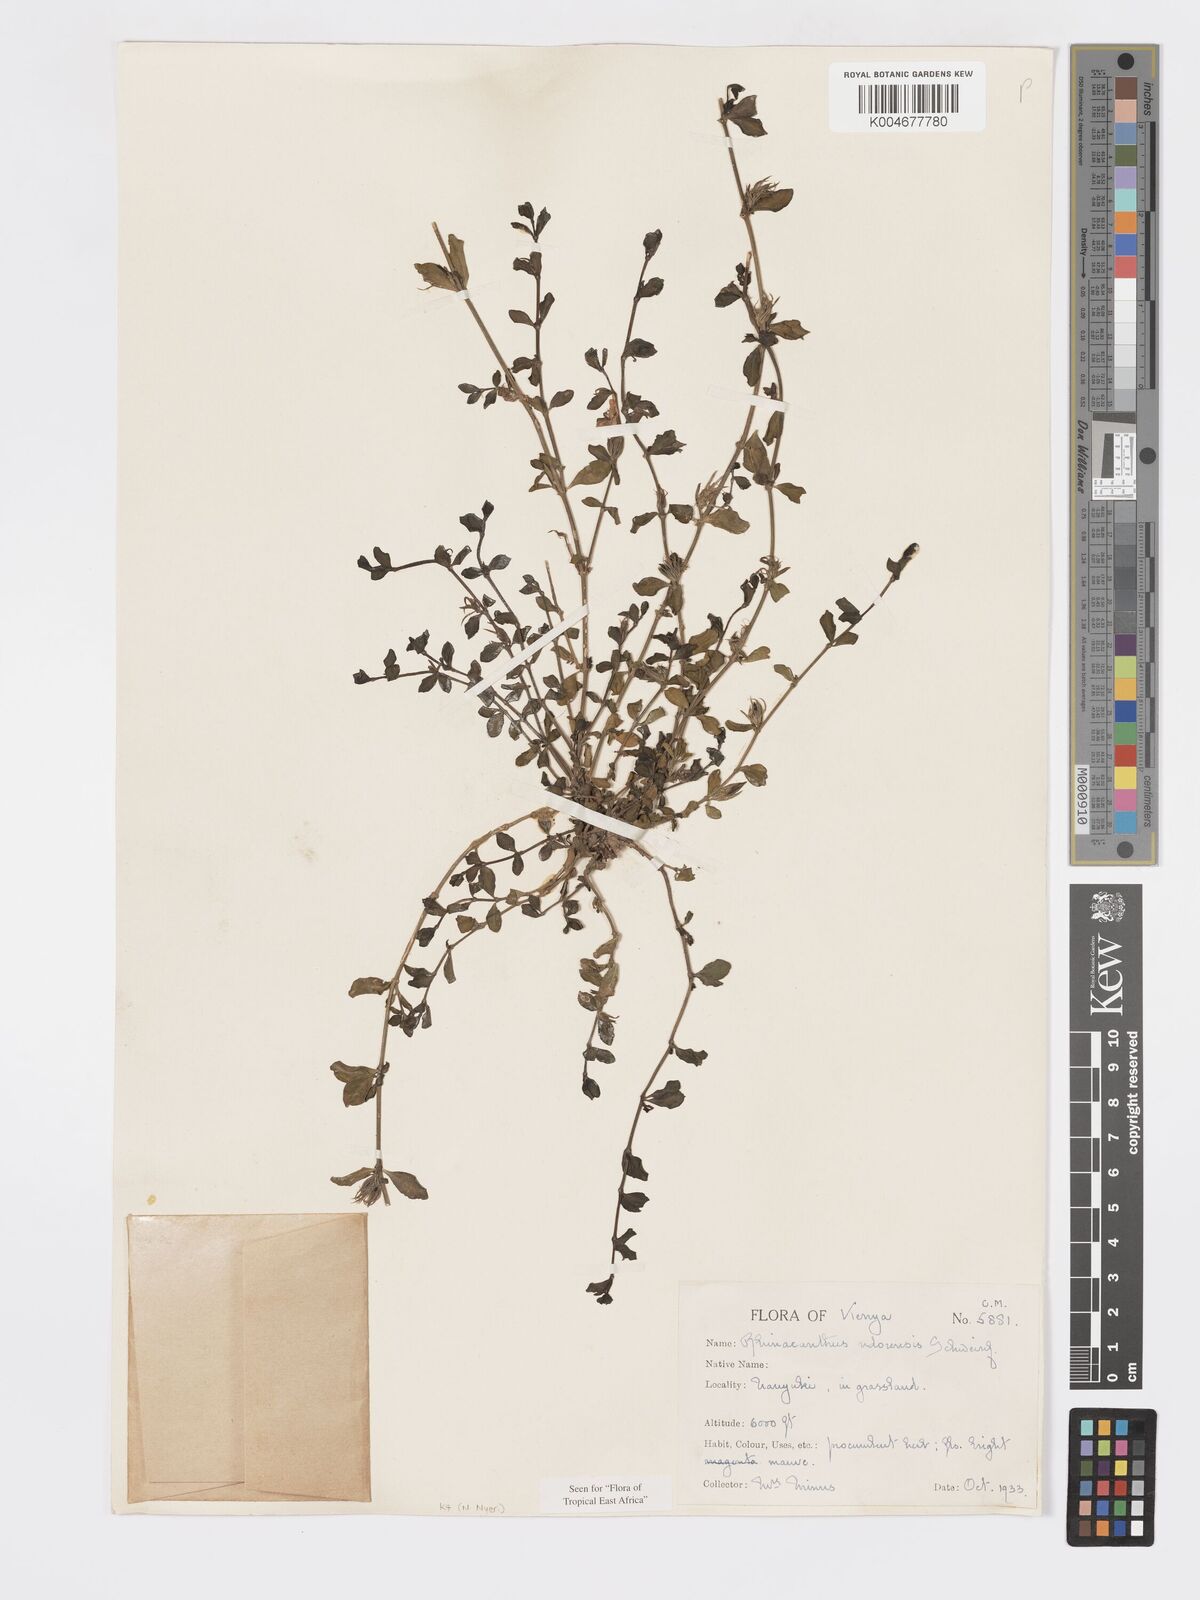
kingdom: Plantae
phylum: Tracheophyta
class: Magnoliopsida
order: Lamiales
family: Acanthaceae
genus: Kenyacanthus
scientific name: Kenyacanthus ndorensis
